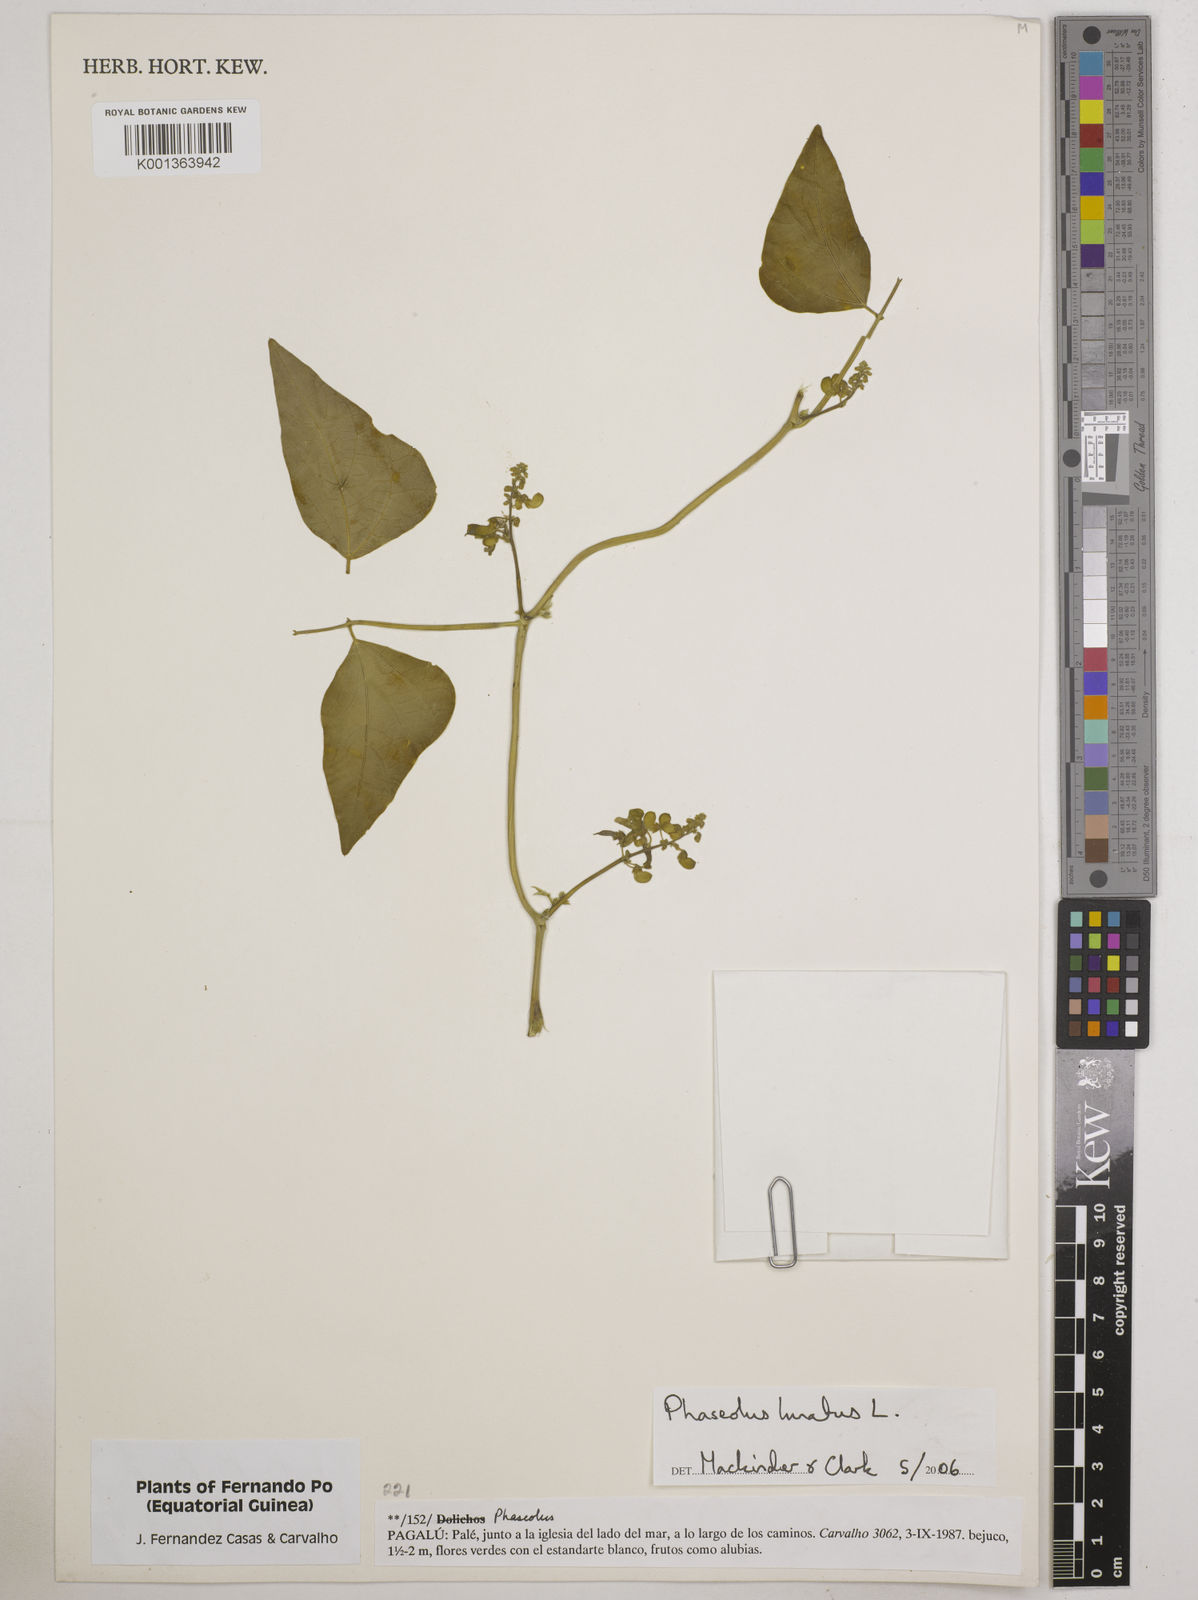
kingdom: Plantae
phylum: Tracheophyta
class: Magnoliopsida
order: Fabales
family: Fabaceae
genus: Phaseolus
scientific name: Phaseolus lunatus
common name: Sieva bean
